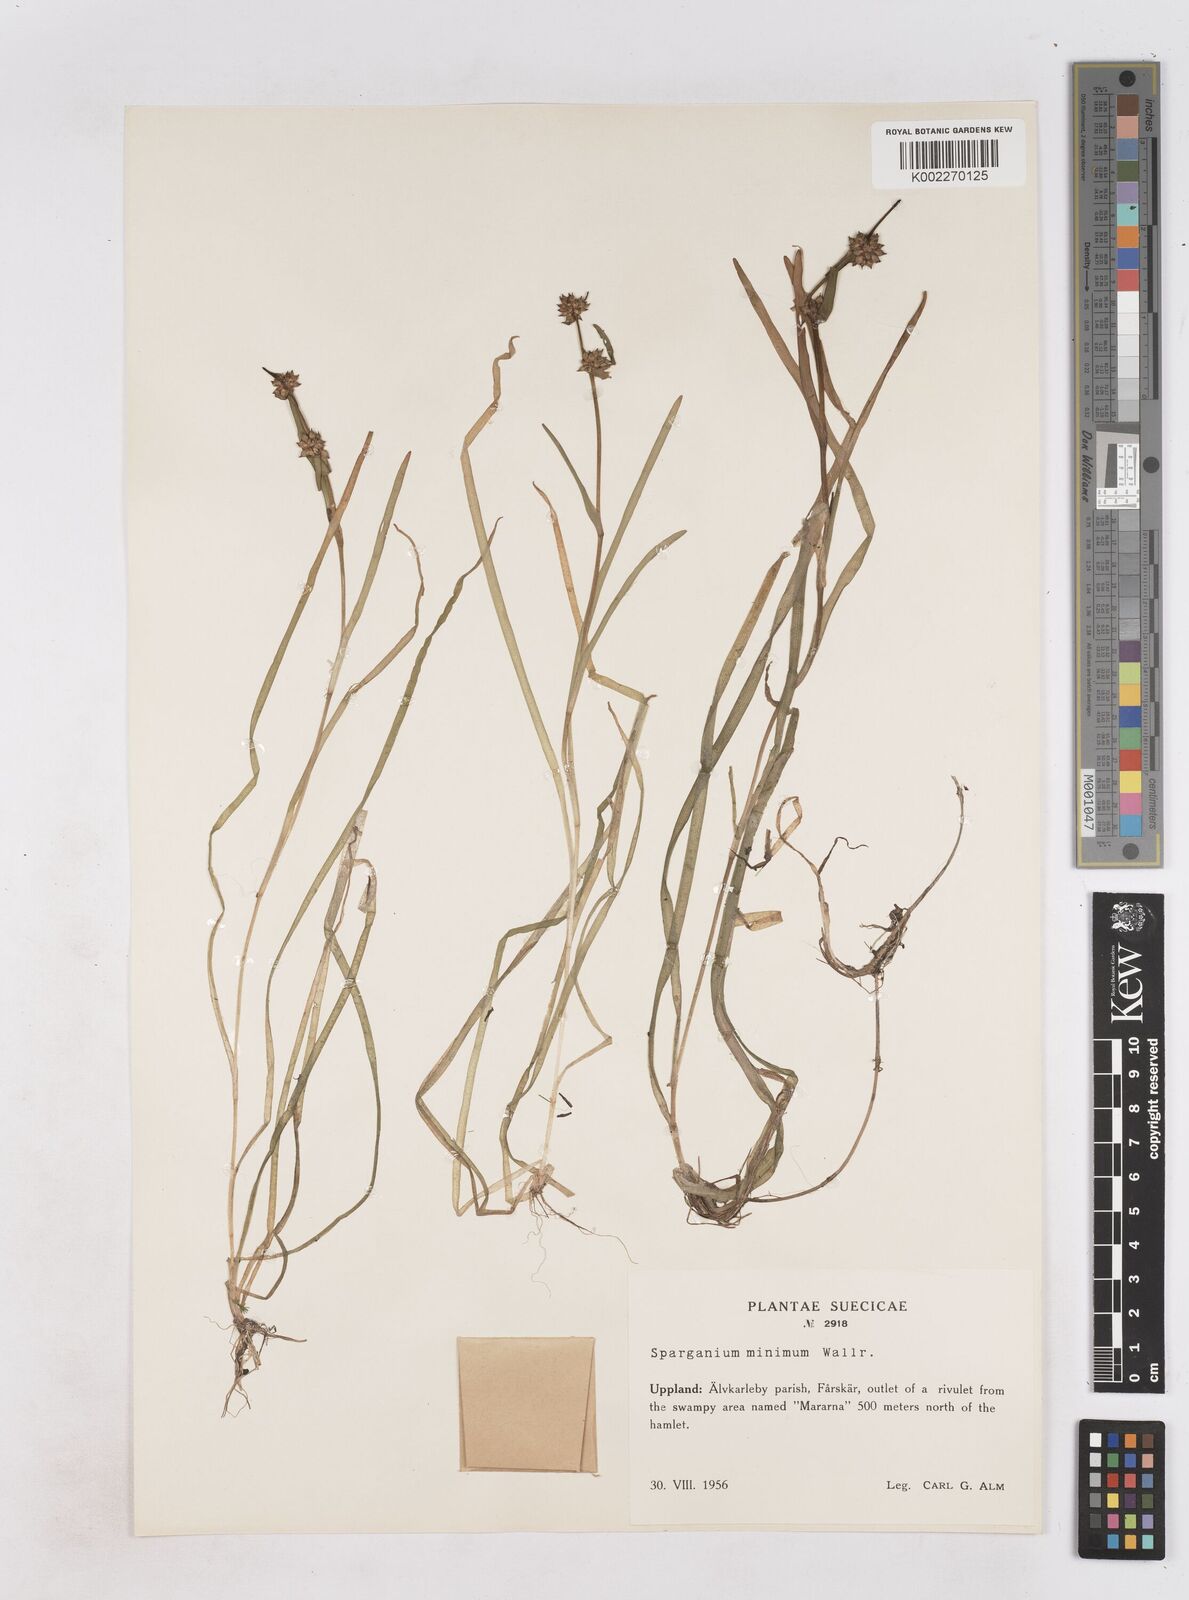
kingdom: Plantae
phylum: Tracheophyta
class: Liliopsida
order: Poales
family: Typhaceae
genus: Sparganium
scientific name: Sparganium natans
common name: Least bur-reed
